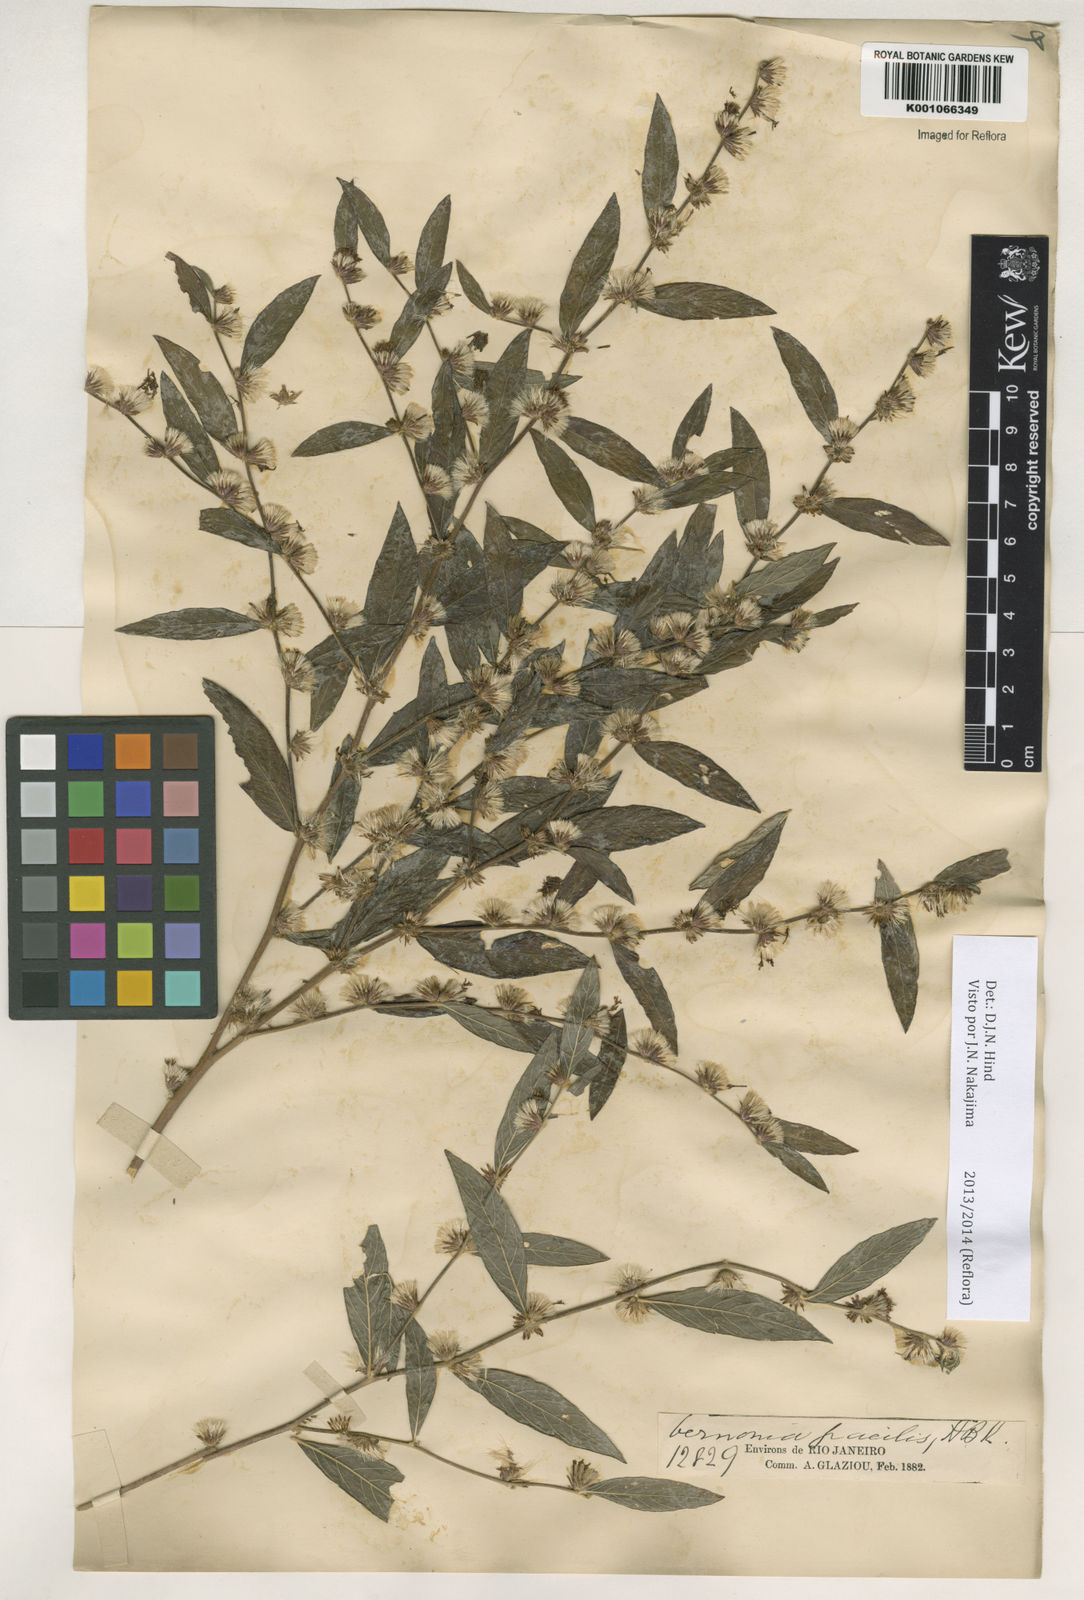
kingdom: Plantae
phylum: Tracheophyta
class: Magnoliopsida
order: Asterales
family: Asteraceae
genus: Lepidaploa
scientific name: Lepidaploa salzmannii
